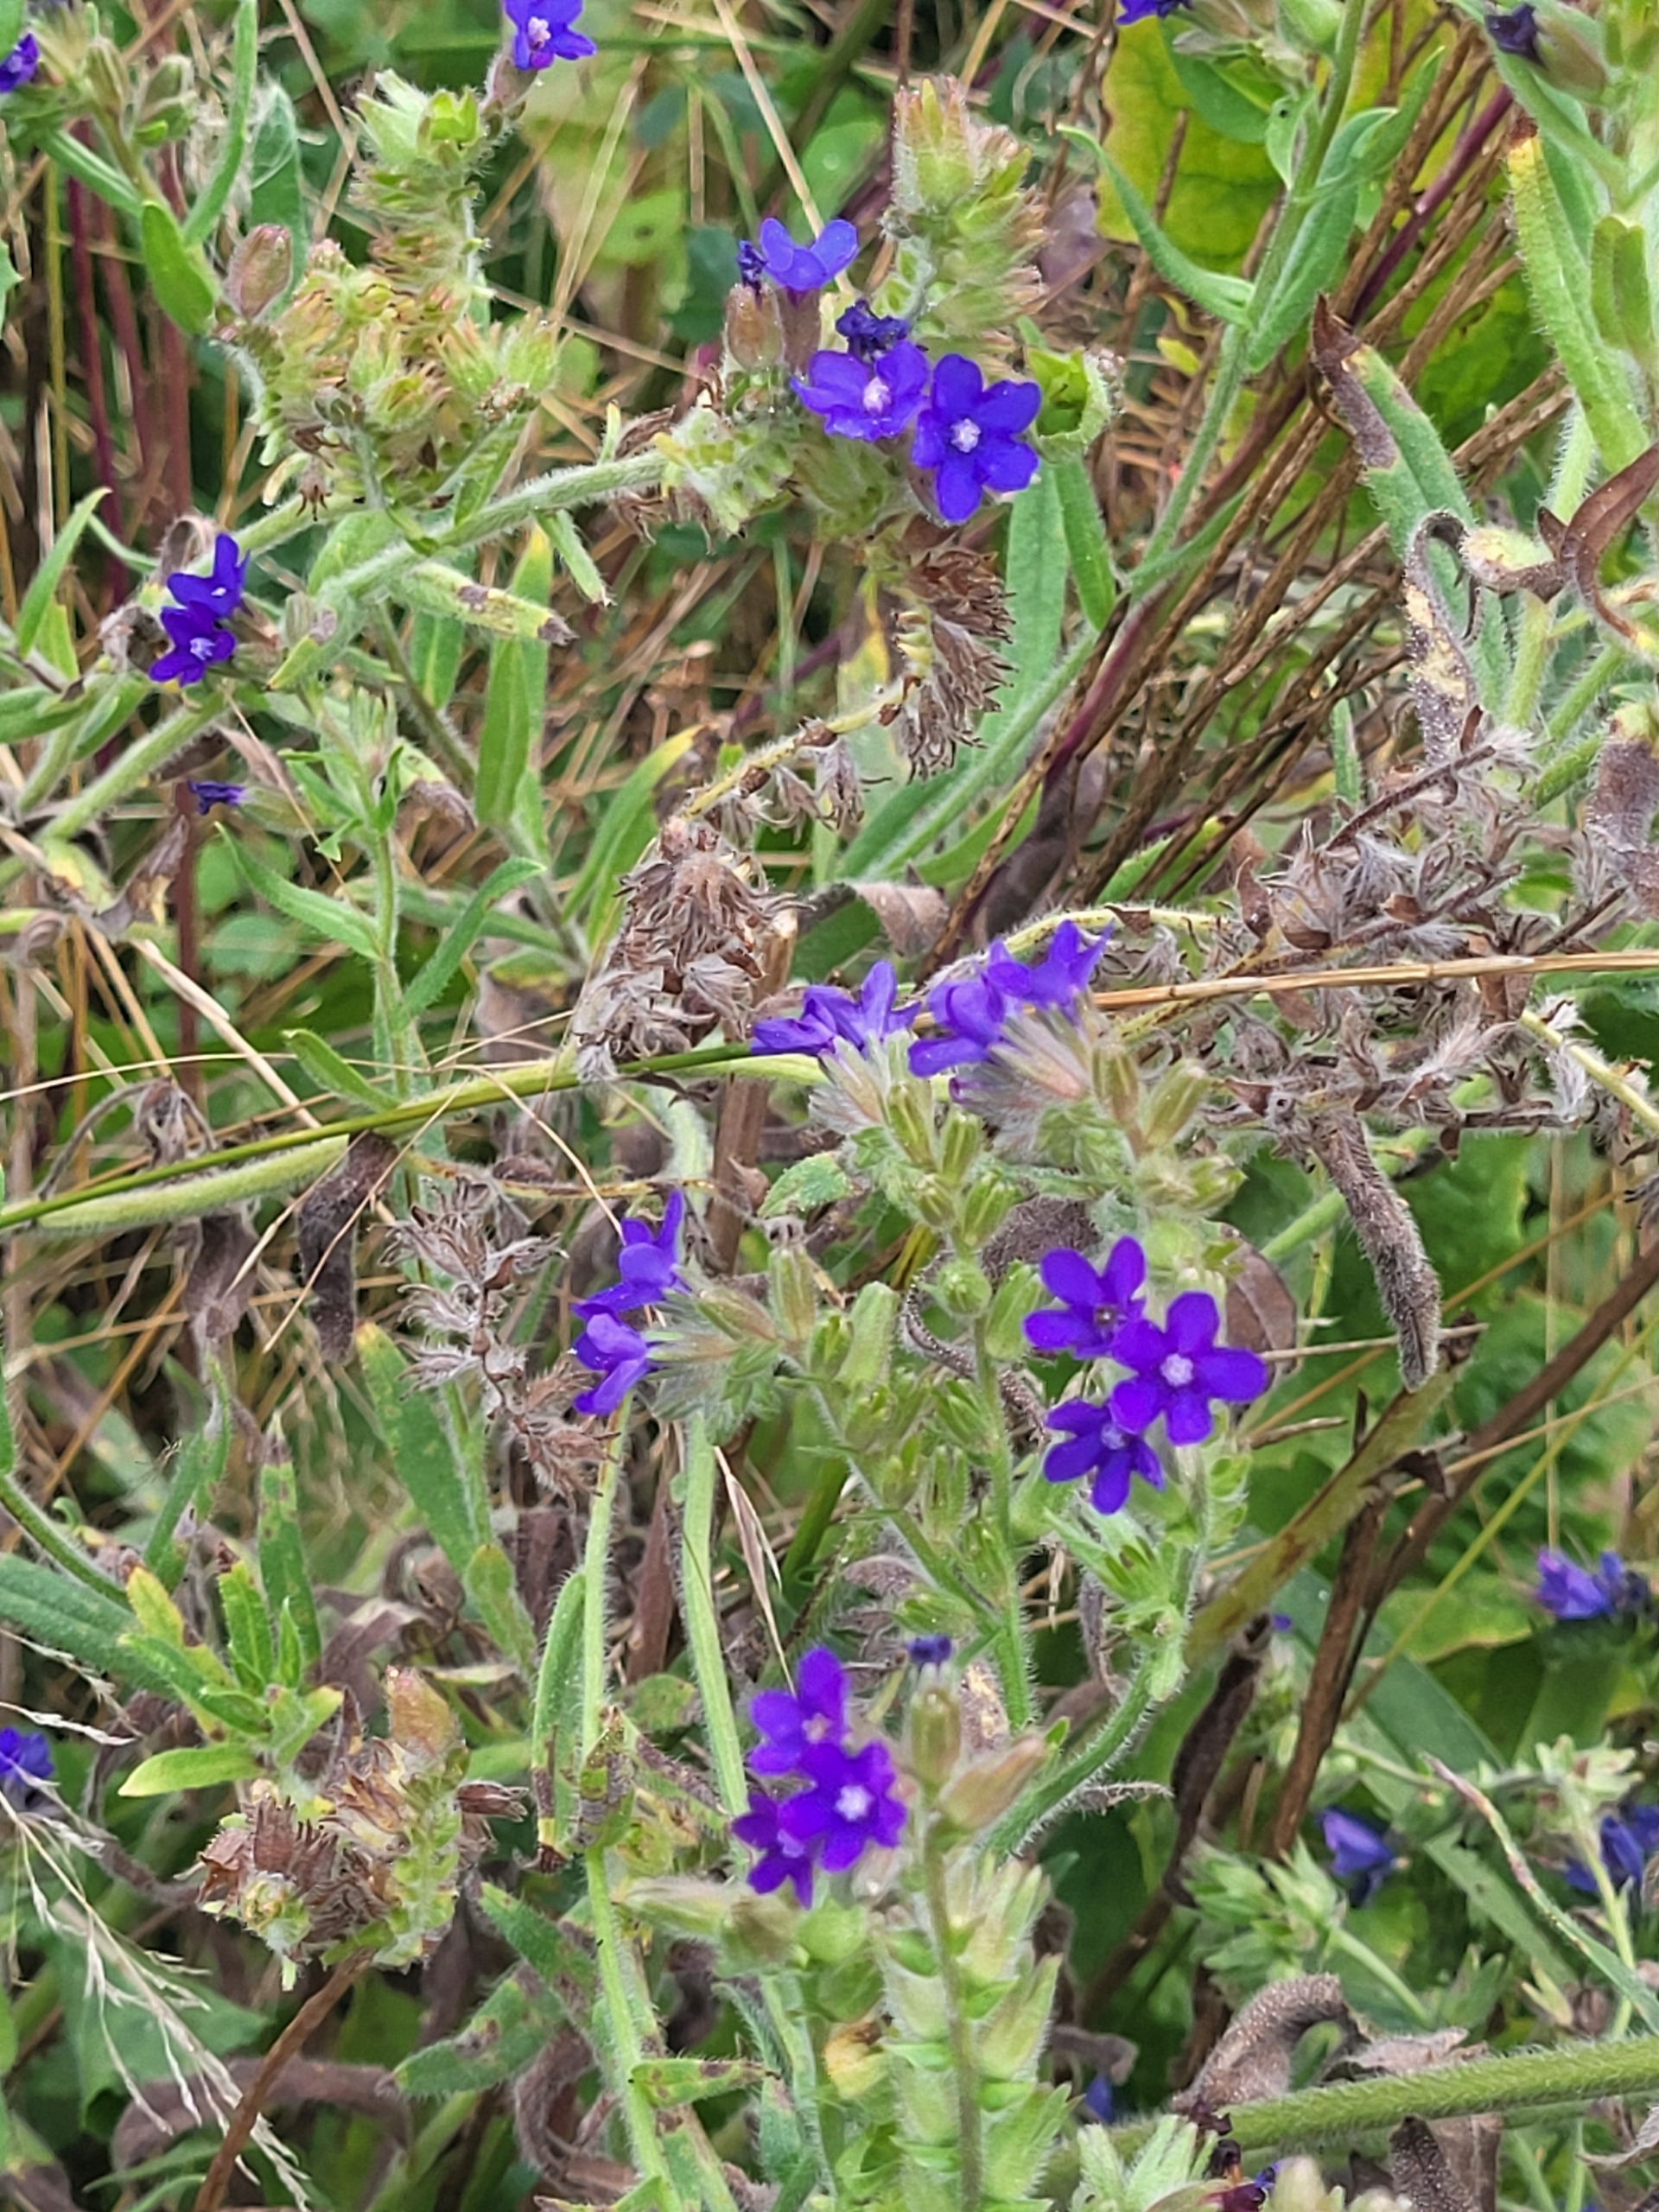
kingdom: Plantae
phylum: Tracheophyta
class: Magnoliopsida
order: Boraginales
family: Boraginaceae
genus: Anchusa
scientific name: Anchusa officinalis
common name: Læge-oksetunge
